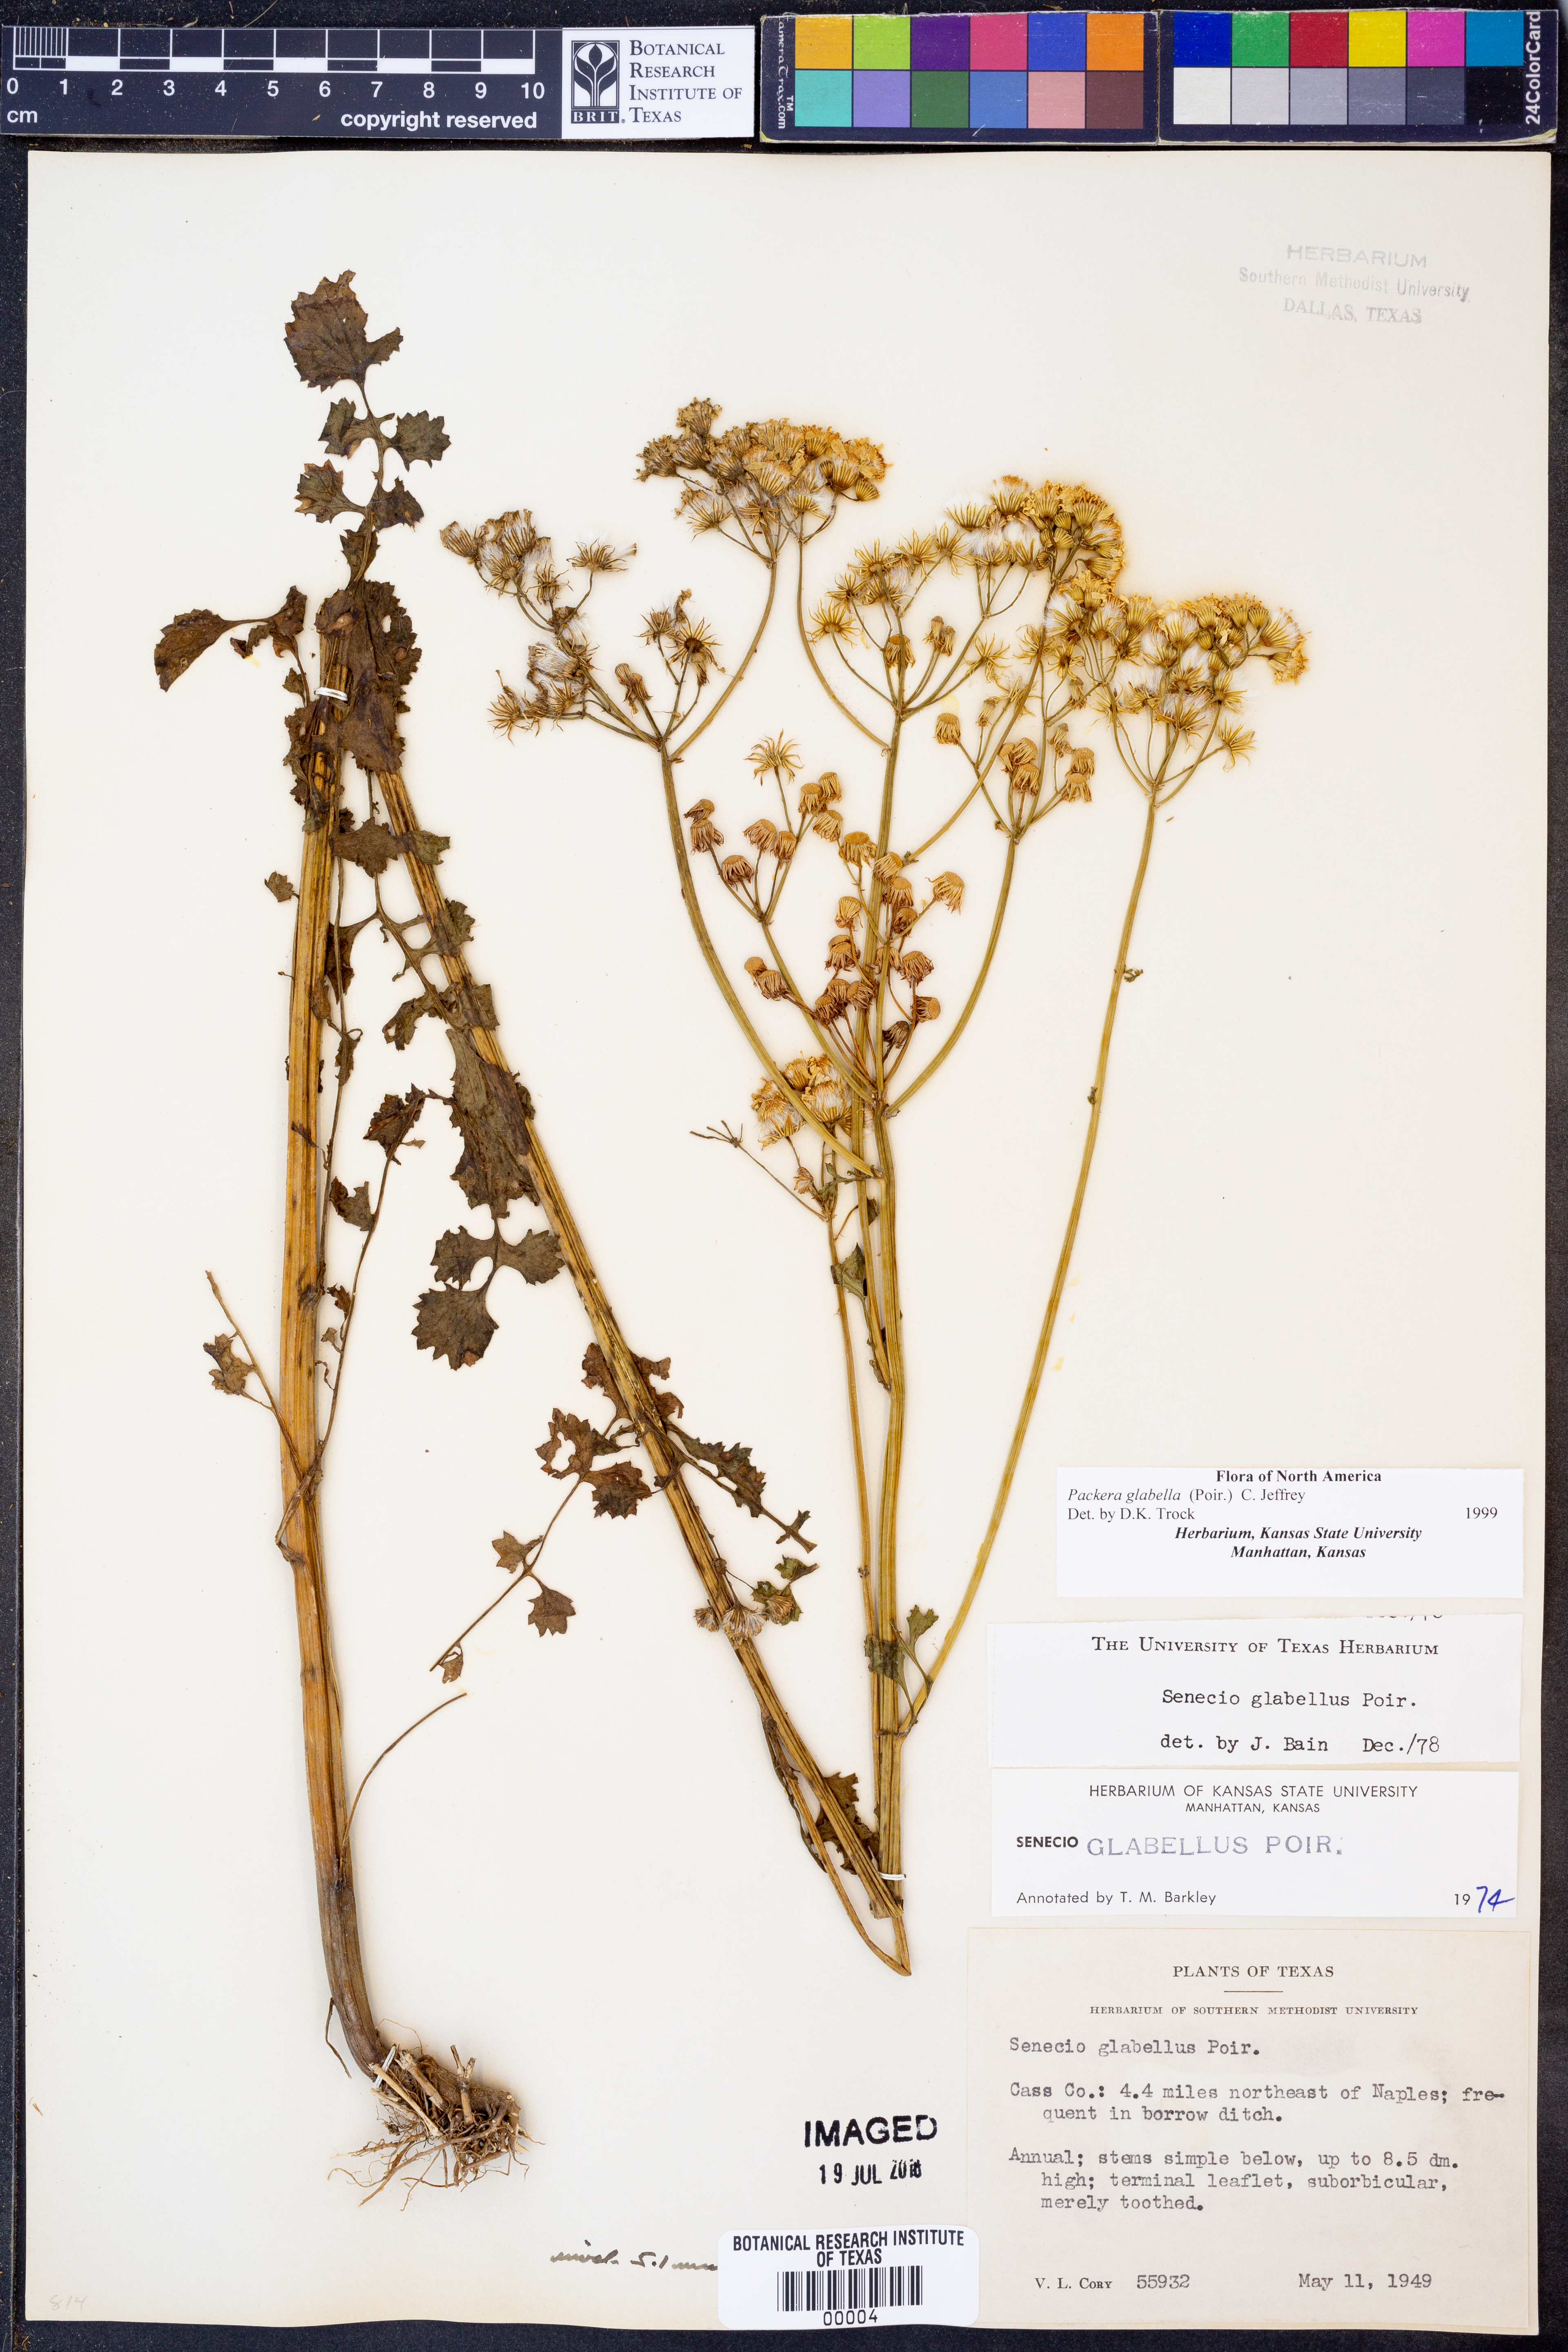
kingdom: Plantae
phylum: Tracheophyta
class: Magnoliopsida
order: Asterales
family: Asteraceae
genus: Packera
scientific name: Packera glabella
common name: Butterweed
